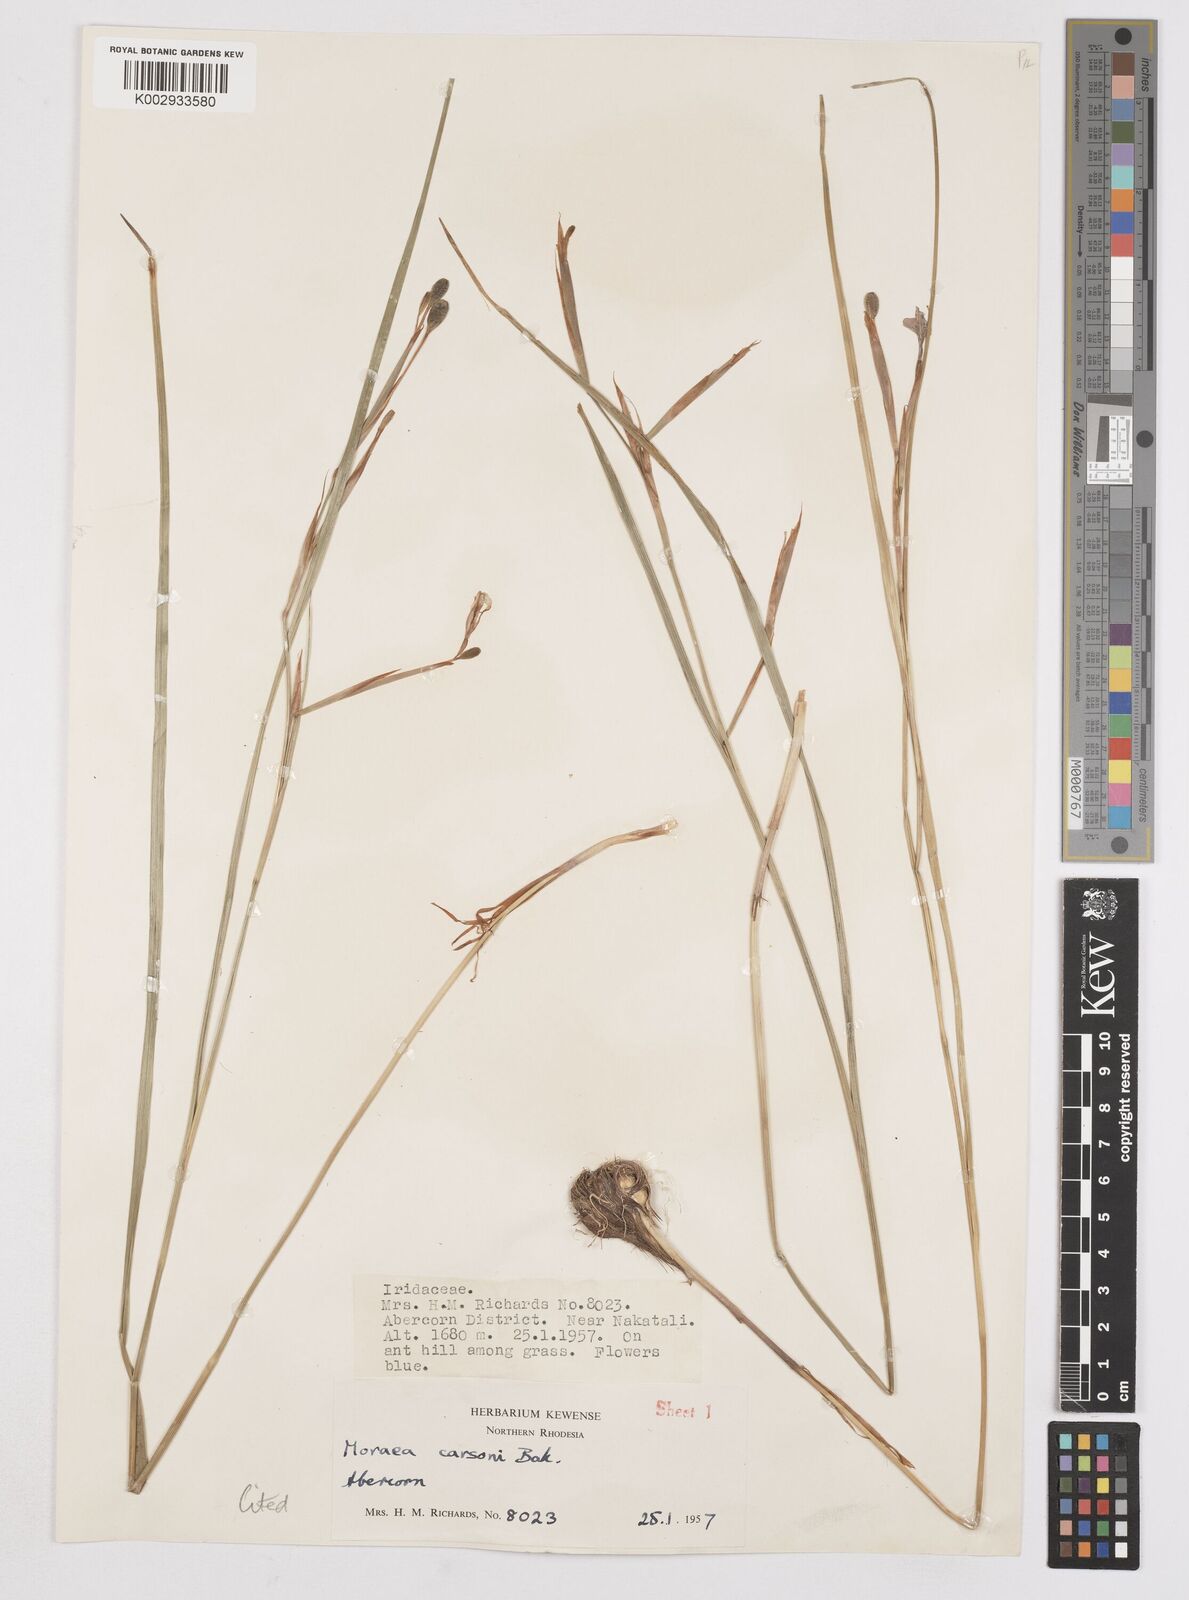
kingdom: Plantae
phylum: Tracheophyta
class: Liliopsida
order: Asparagales
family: Iridaceae
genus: Moraea
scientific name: Moraea carsonii
